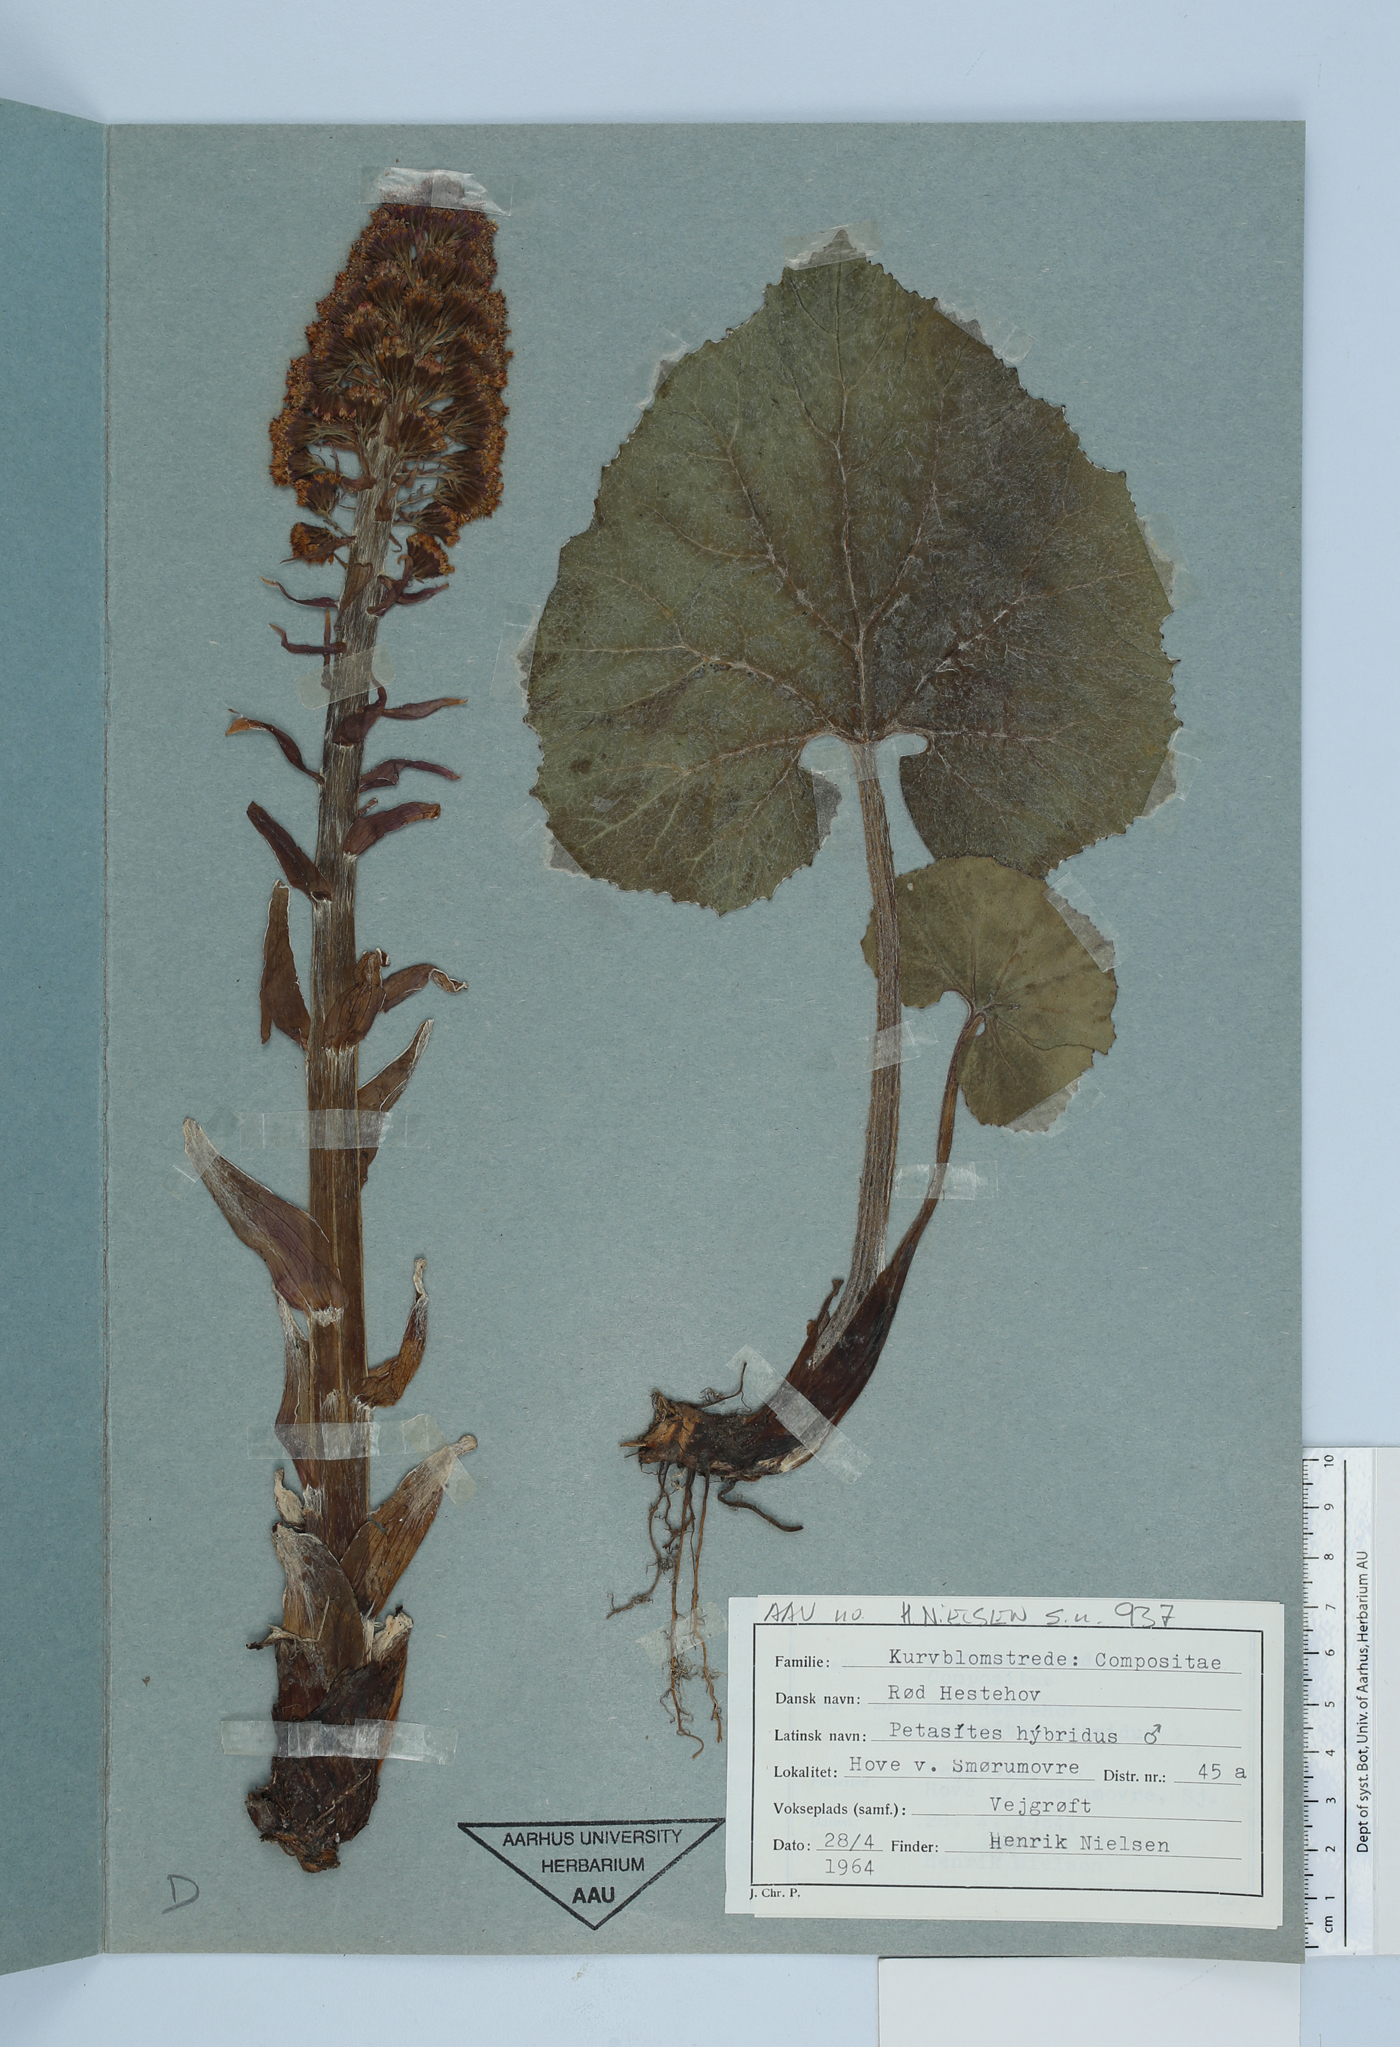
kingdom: Plantae
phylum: Tracheophyta
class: Magnoliopsida
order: Asterales
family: Asteraceae
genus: Petasites
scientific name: Petasites hybridus
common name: Butterbur
